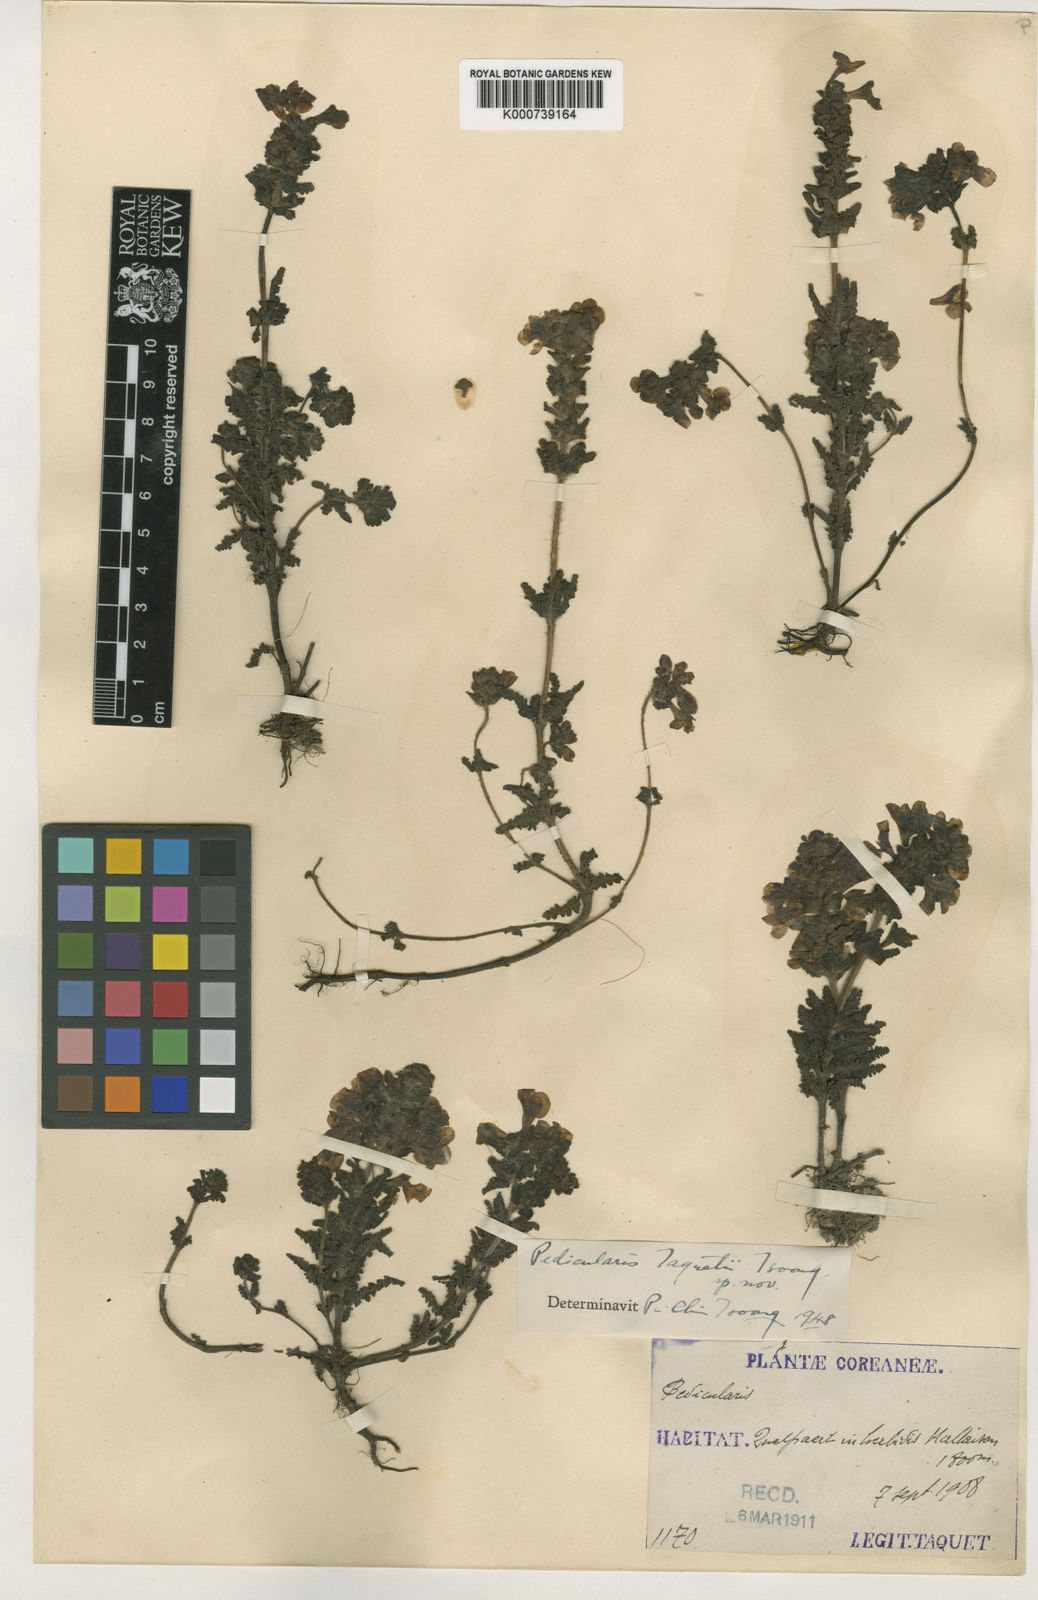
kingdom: Plantae
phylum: Tracheophyta
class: Magnoliopsida
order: Lamiales
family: Orobanchaceae
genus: Pedicularis
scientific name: Pedicularis verticillata
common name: Whorled lousewort
